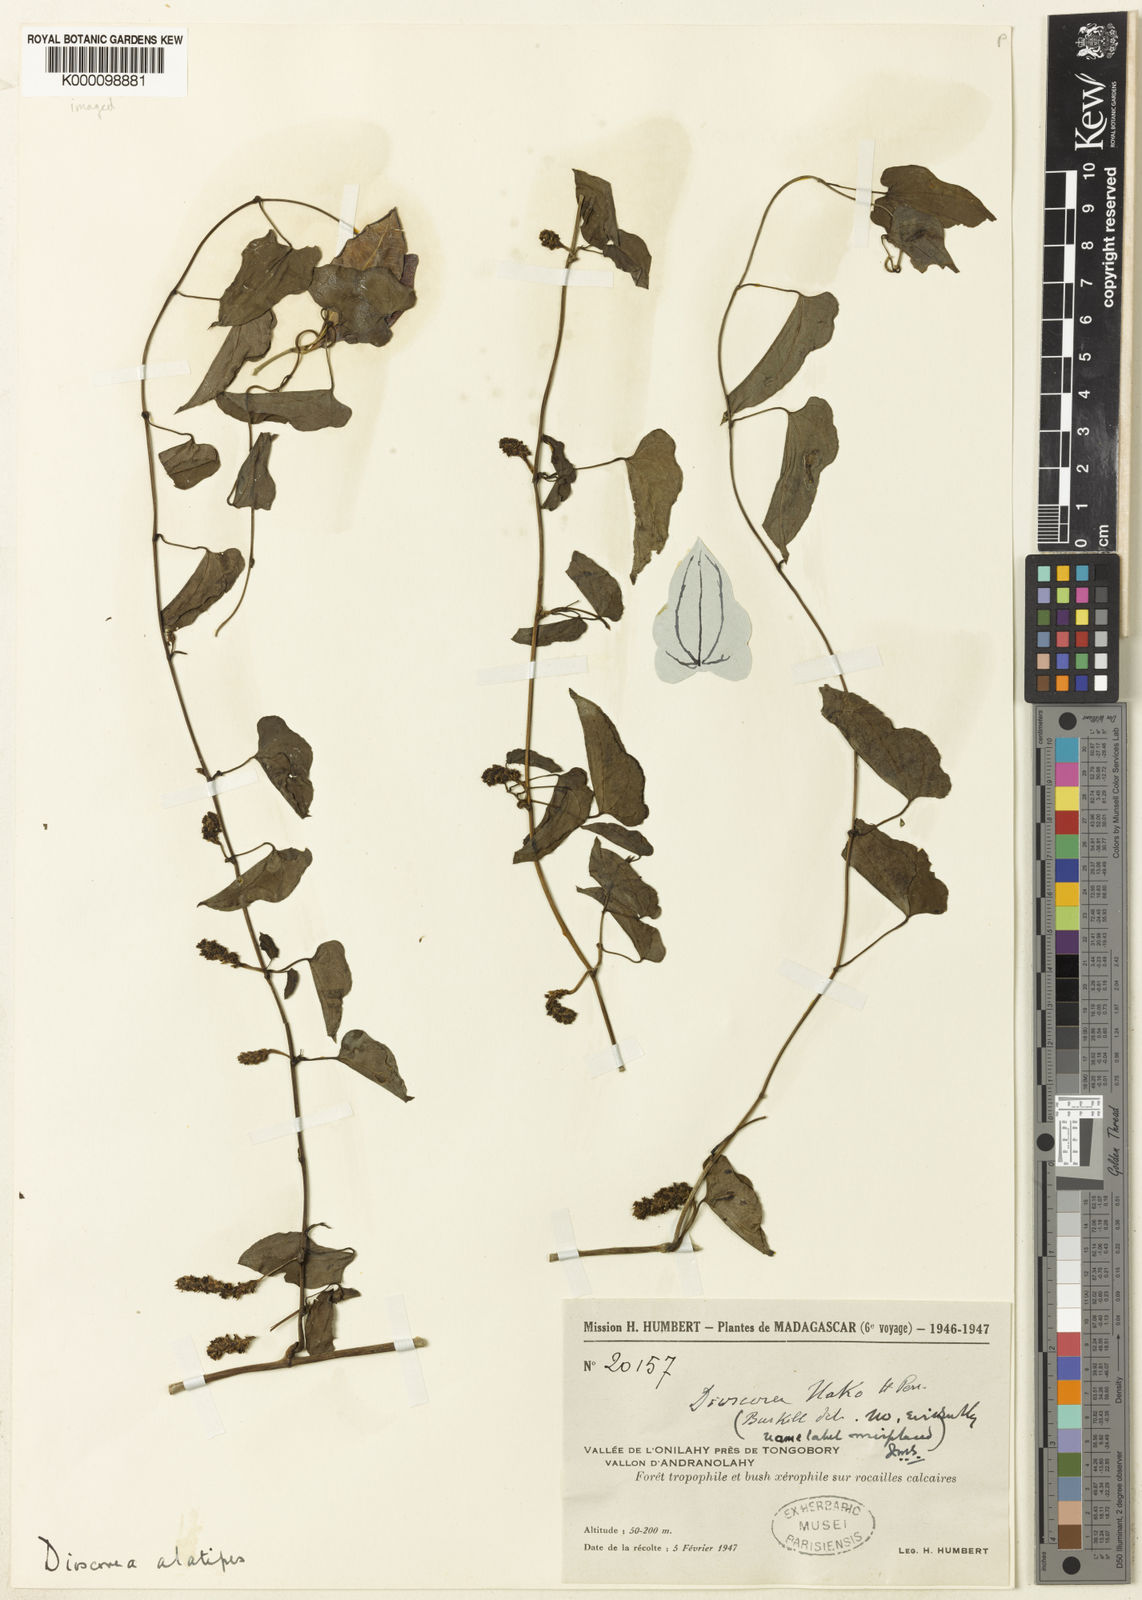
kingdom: Plantae
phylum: Tracheophyta
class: Liliopsida
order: Dioscoreales
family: Dioscoreaceae
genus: Dioscorea
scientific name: Dioscorea alatipes
